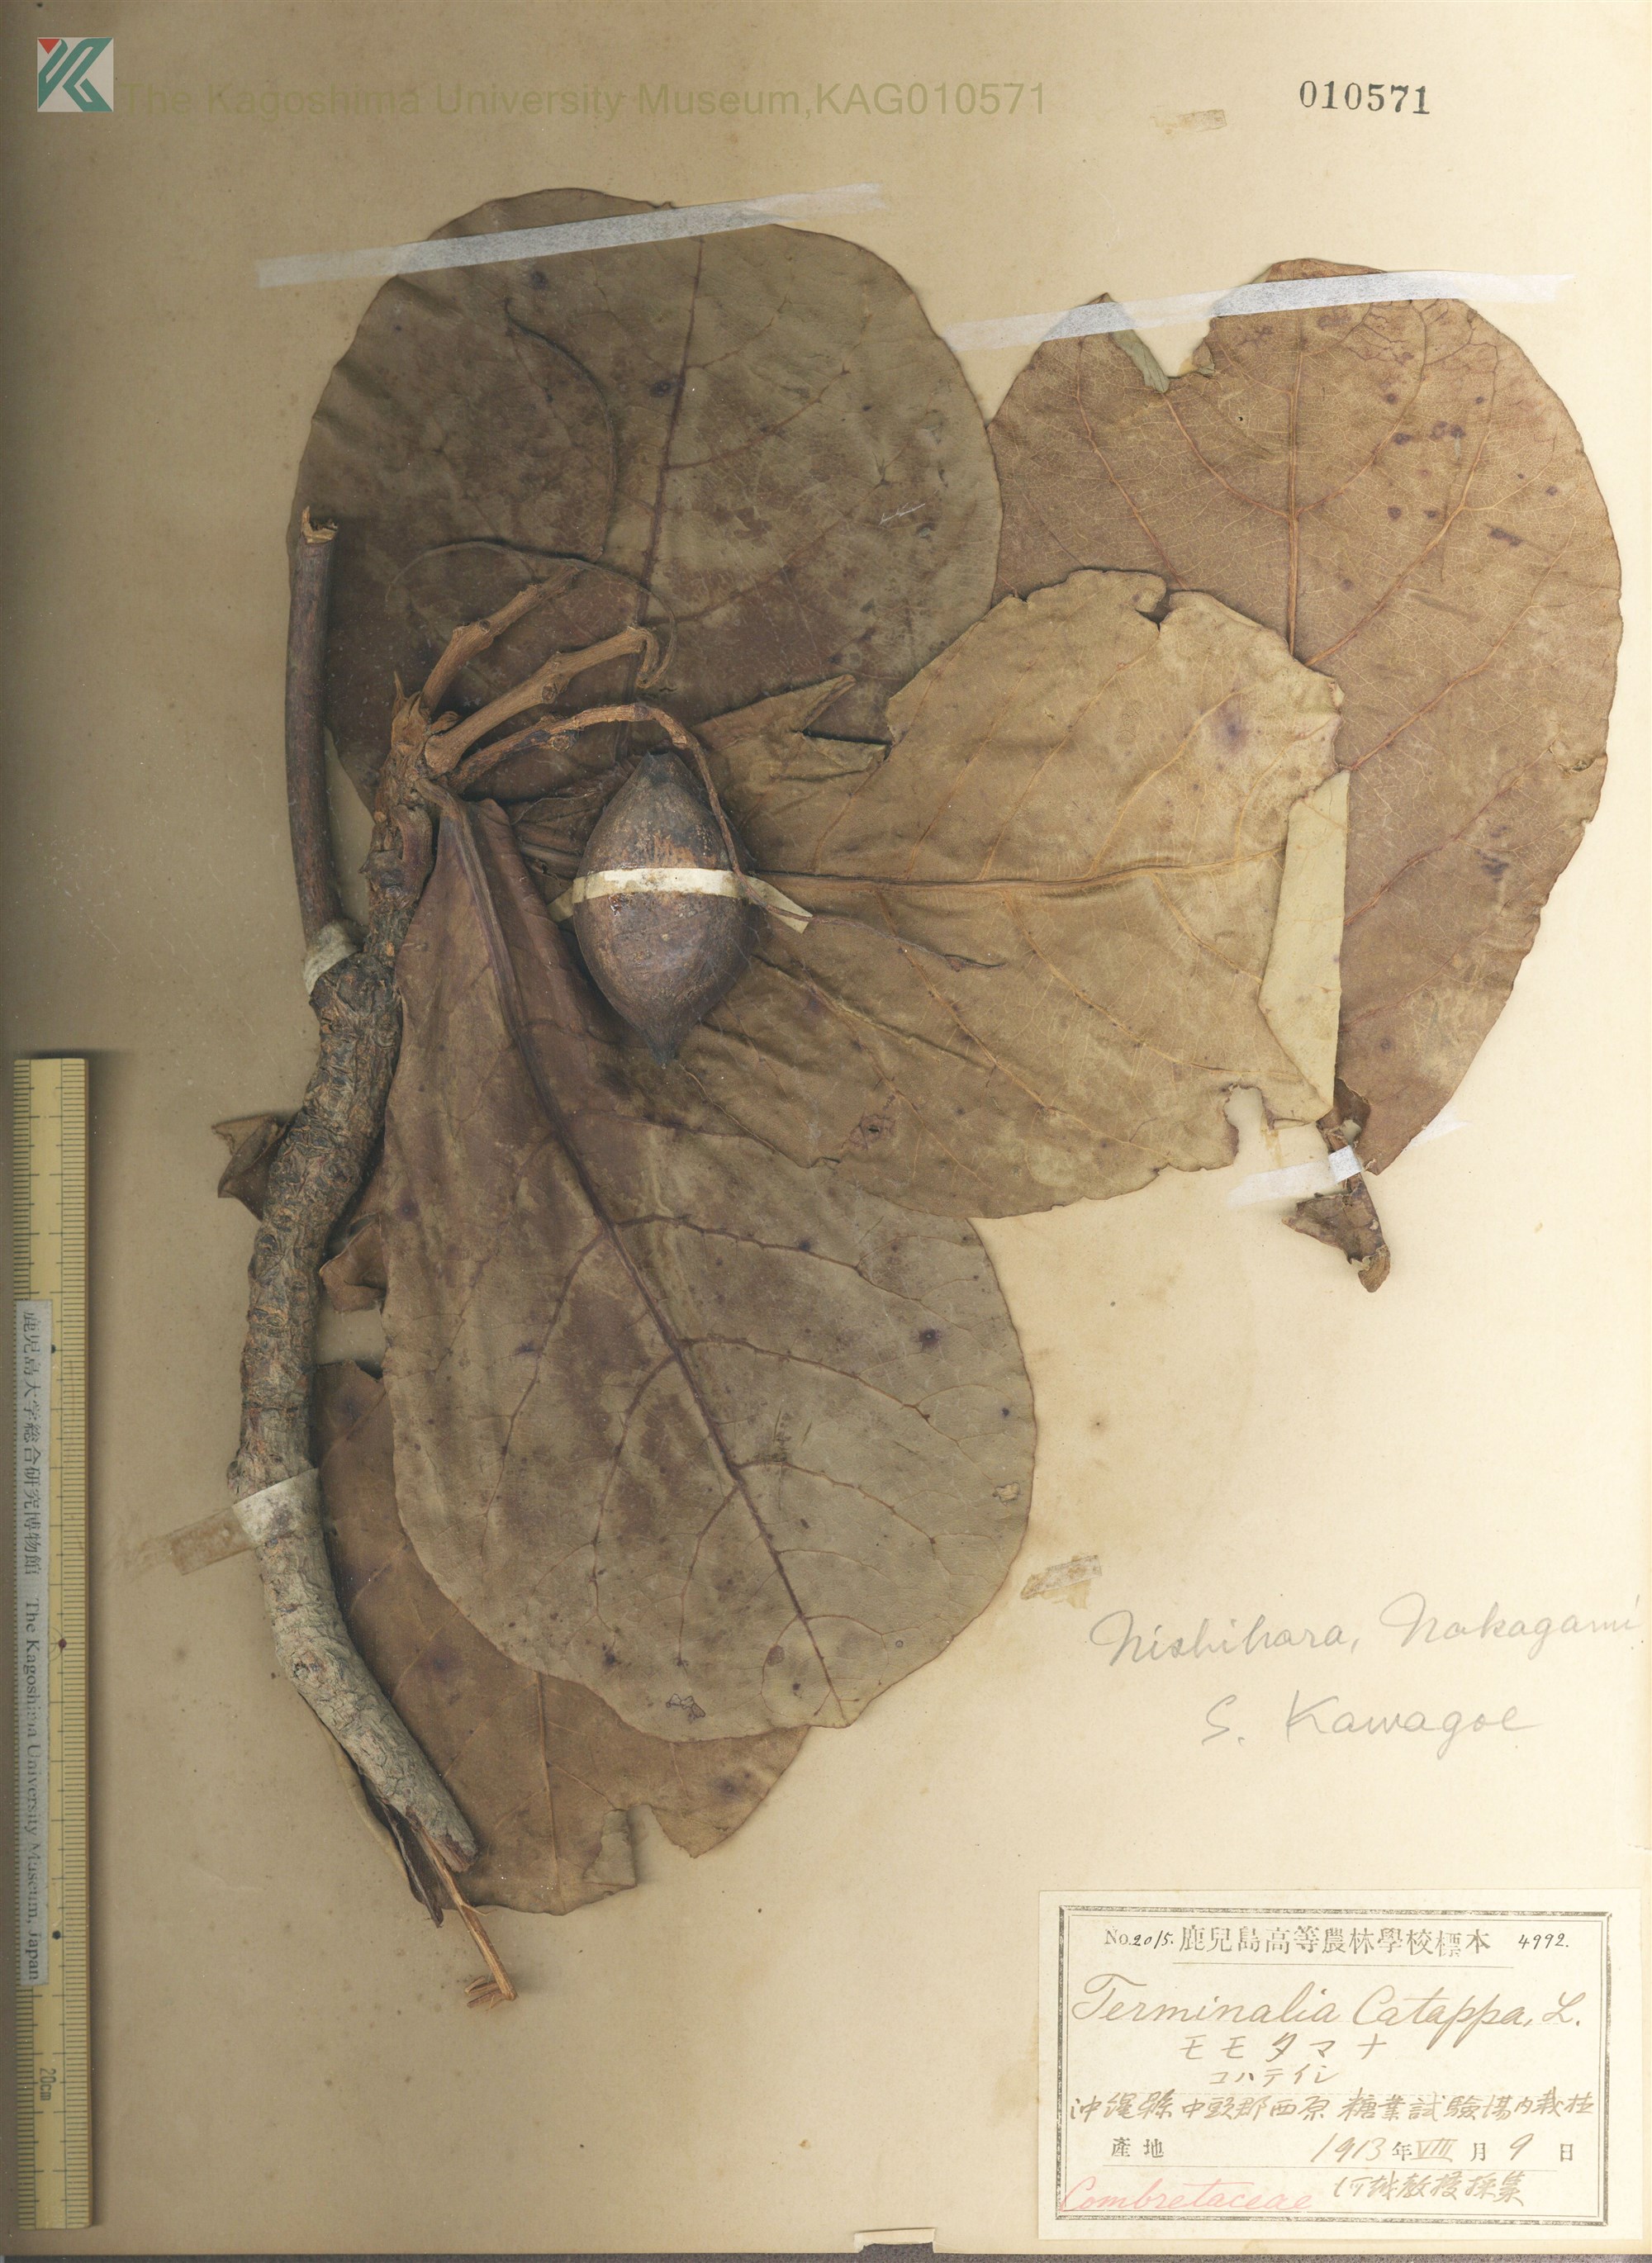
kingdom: Plantae
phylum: Tracheophyta
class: Magnoliopsida
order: Myrtales
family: Combretaceae
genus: Terminalia
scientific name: Terminalia catappa
